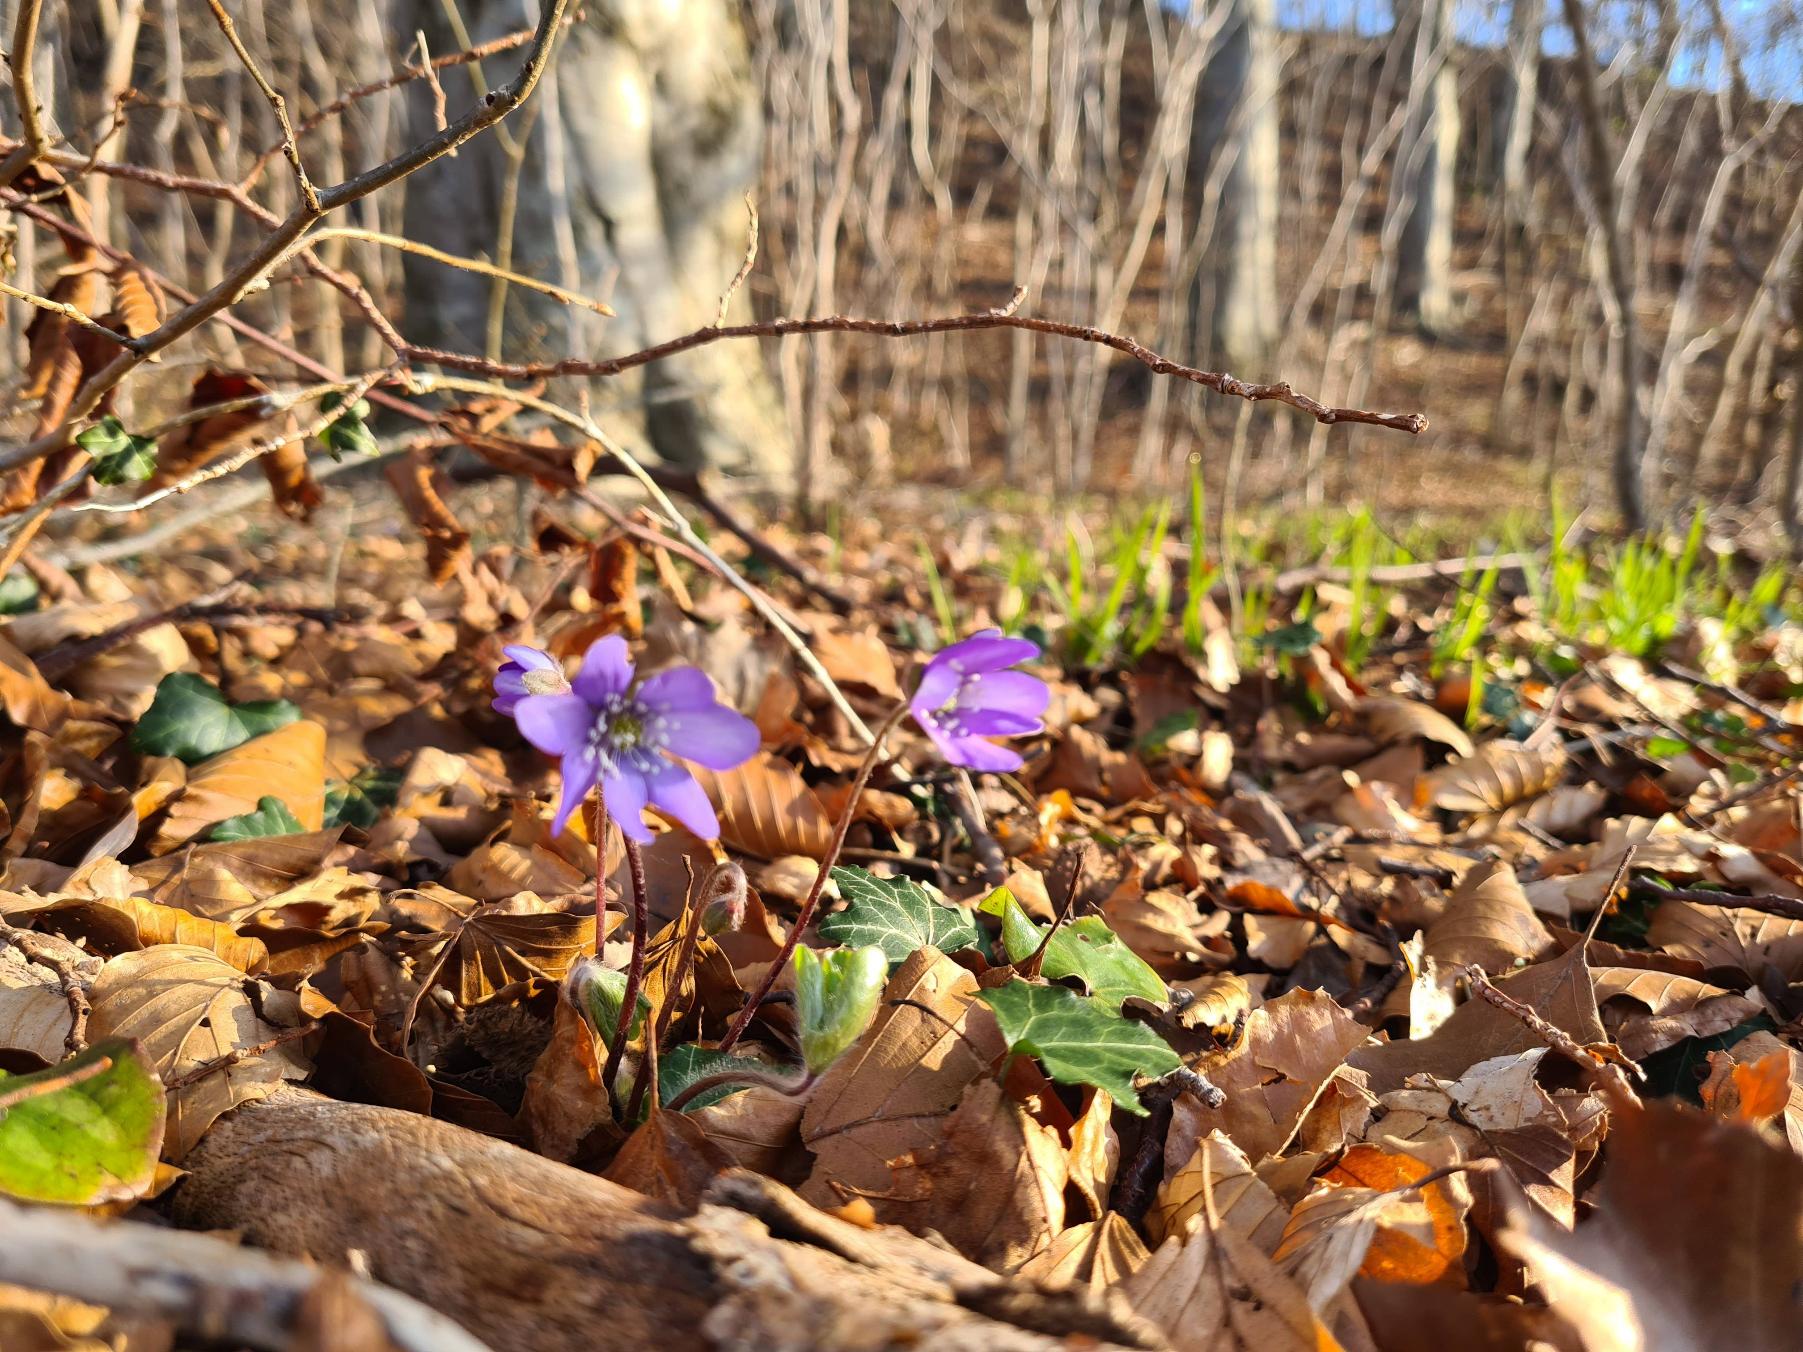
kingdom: Plantae
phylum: Tracheophyta
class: Magnoliopsida
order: Ranunculales
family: Ranunculaceae
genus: Hepatica
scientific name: Hepatica nobilis
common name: Blå anemone
